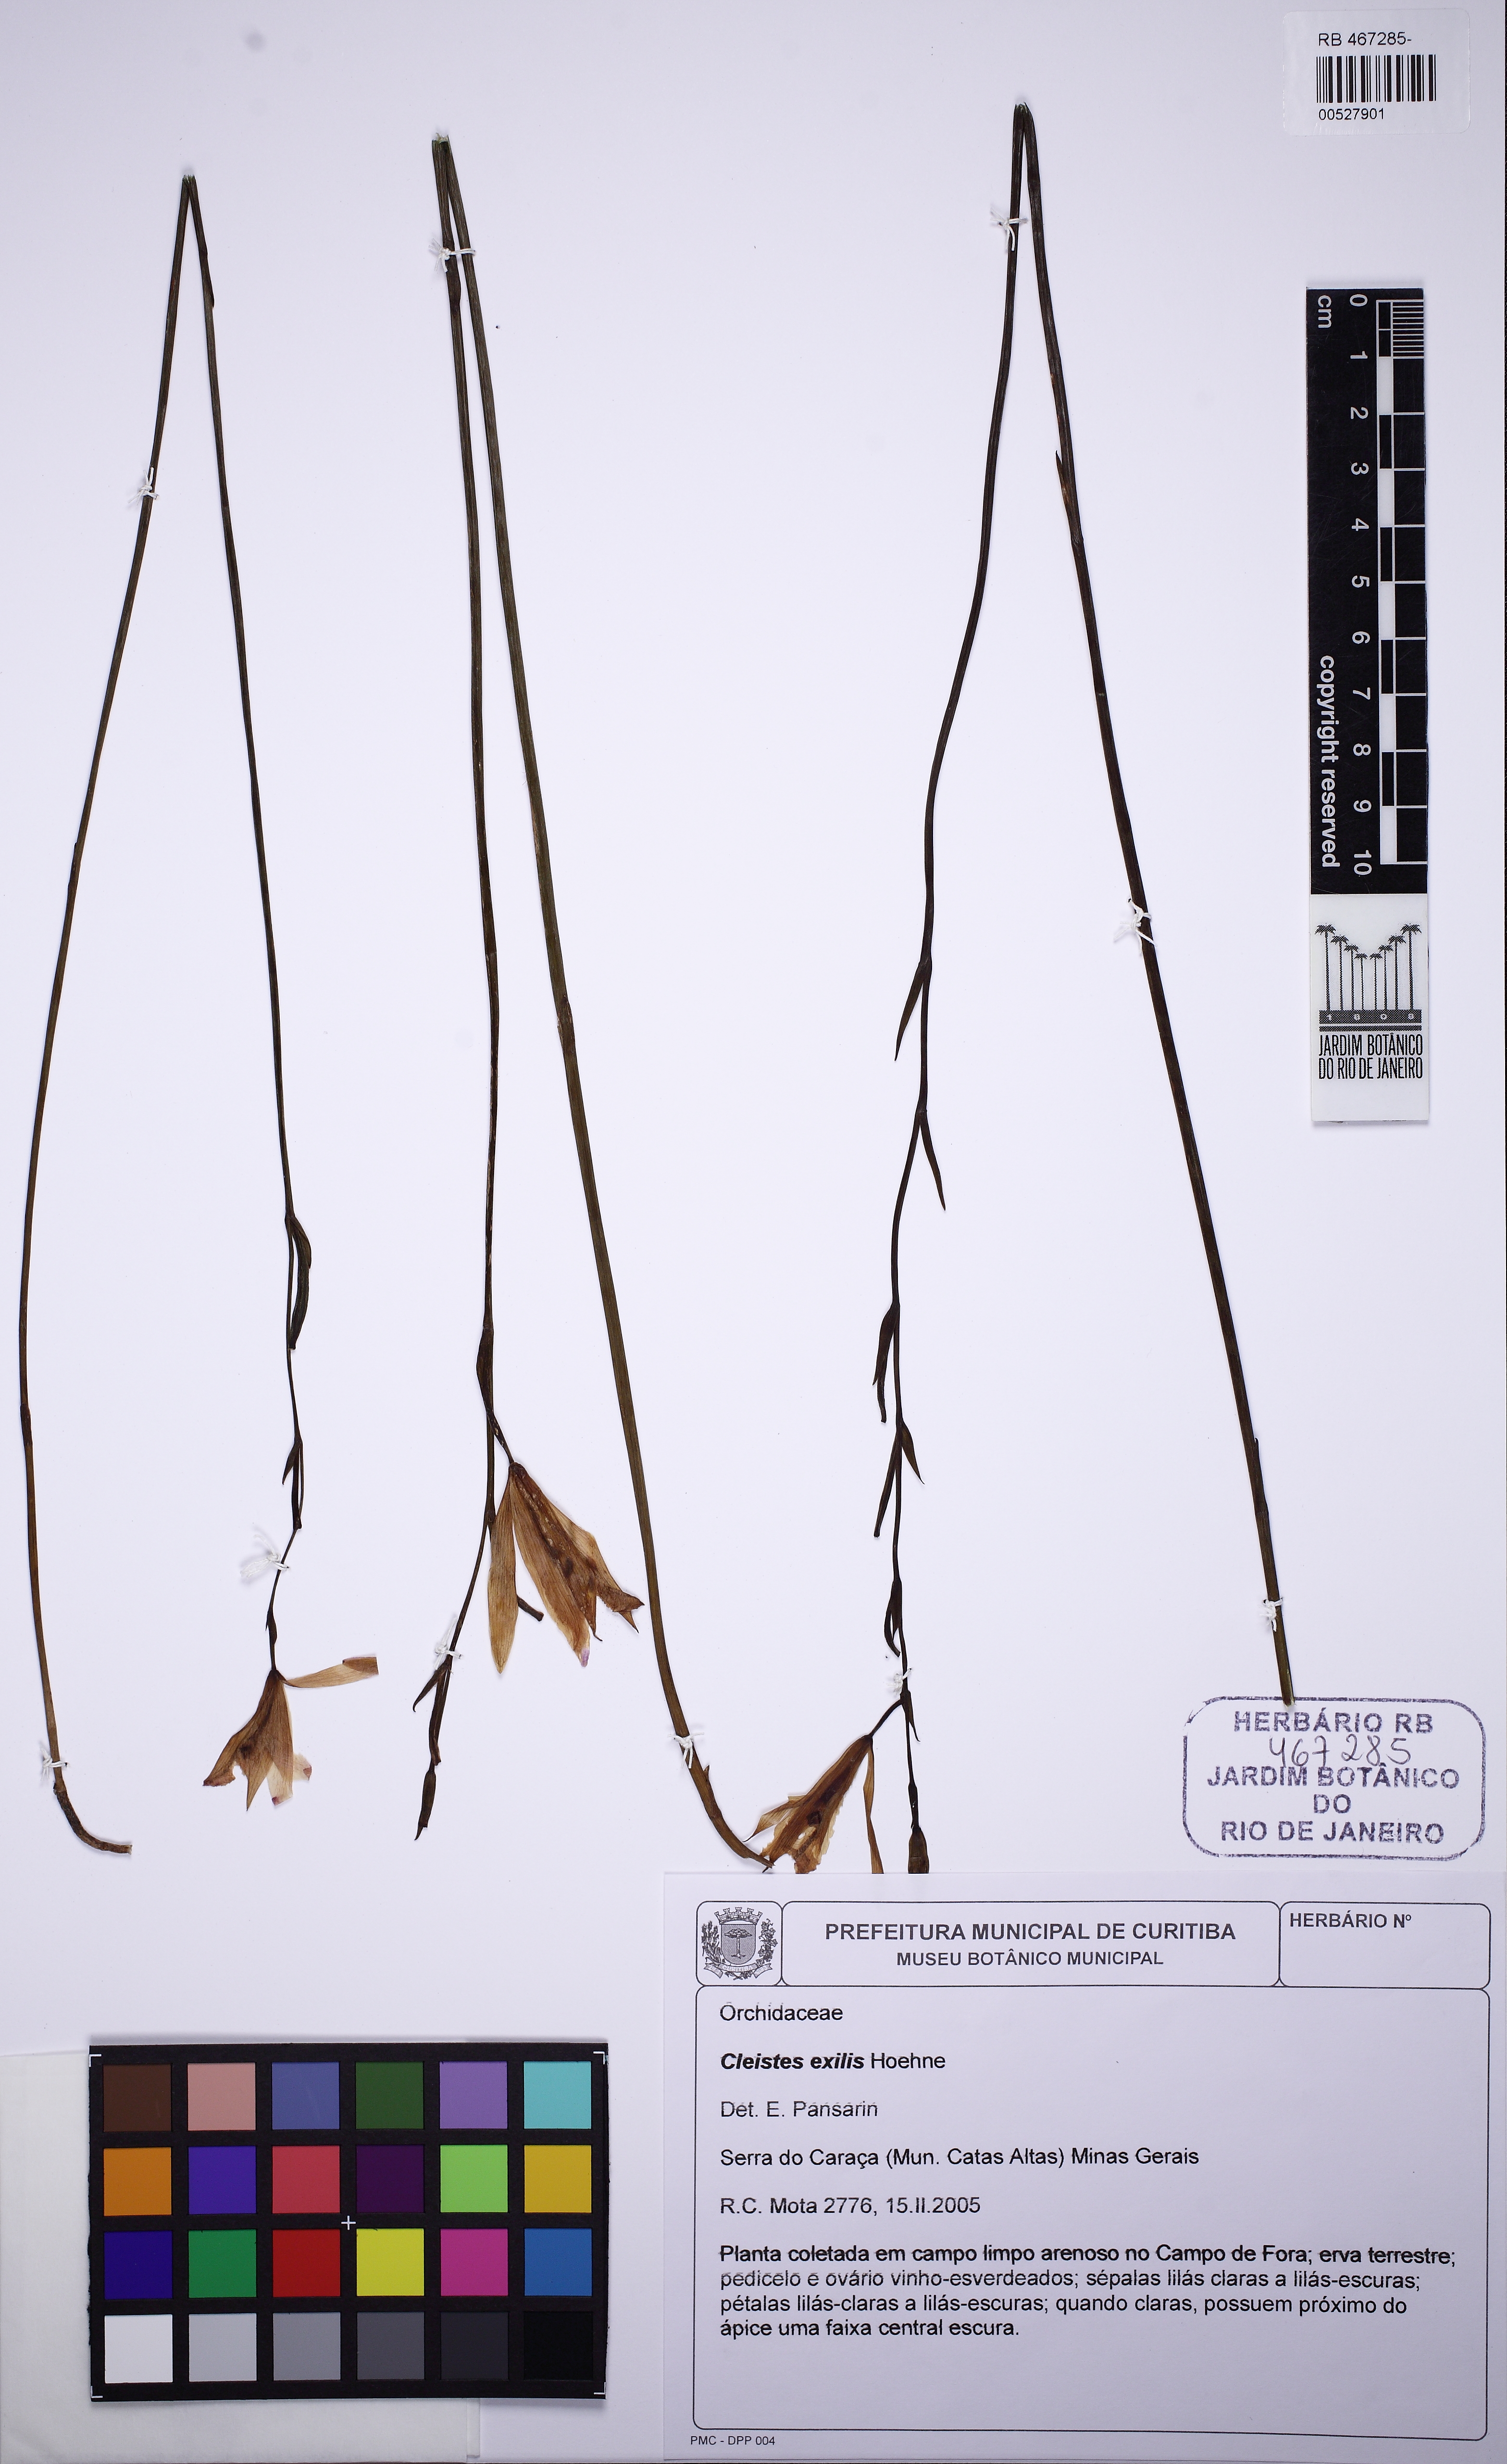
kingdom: Plantae
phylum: Tracheophyta
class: Liliopsida
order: Asparagales
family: Orchidaceae
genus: Cleistes
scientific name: Cleistes exilis
